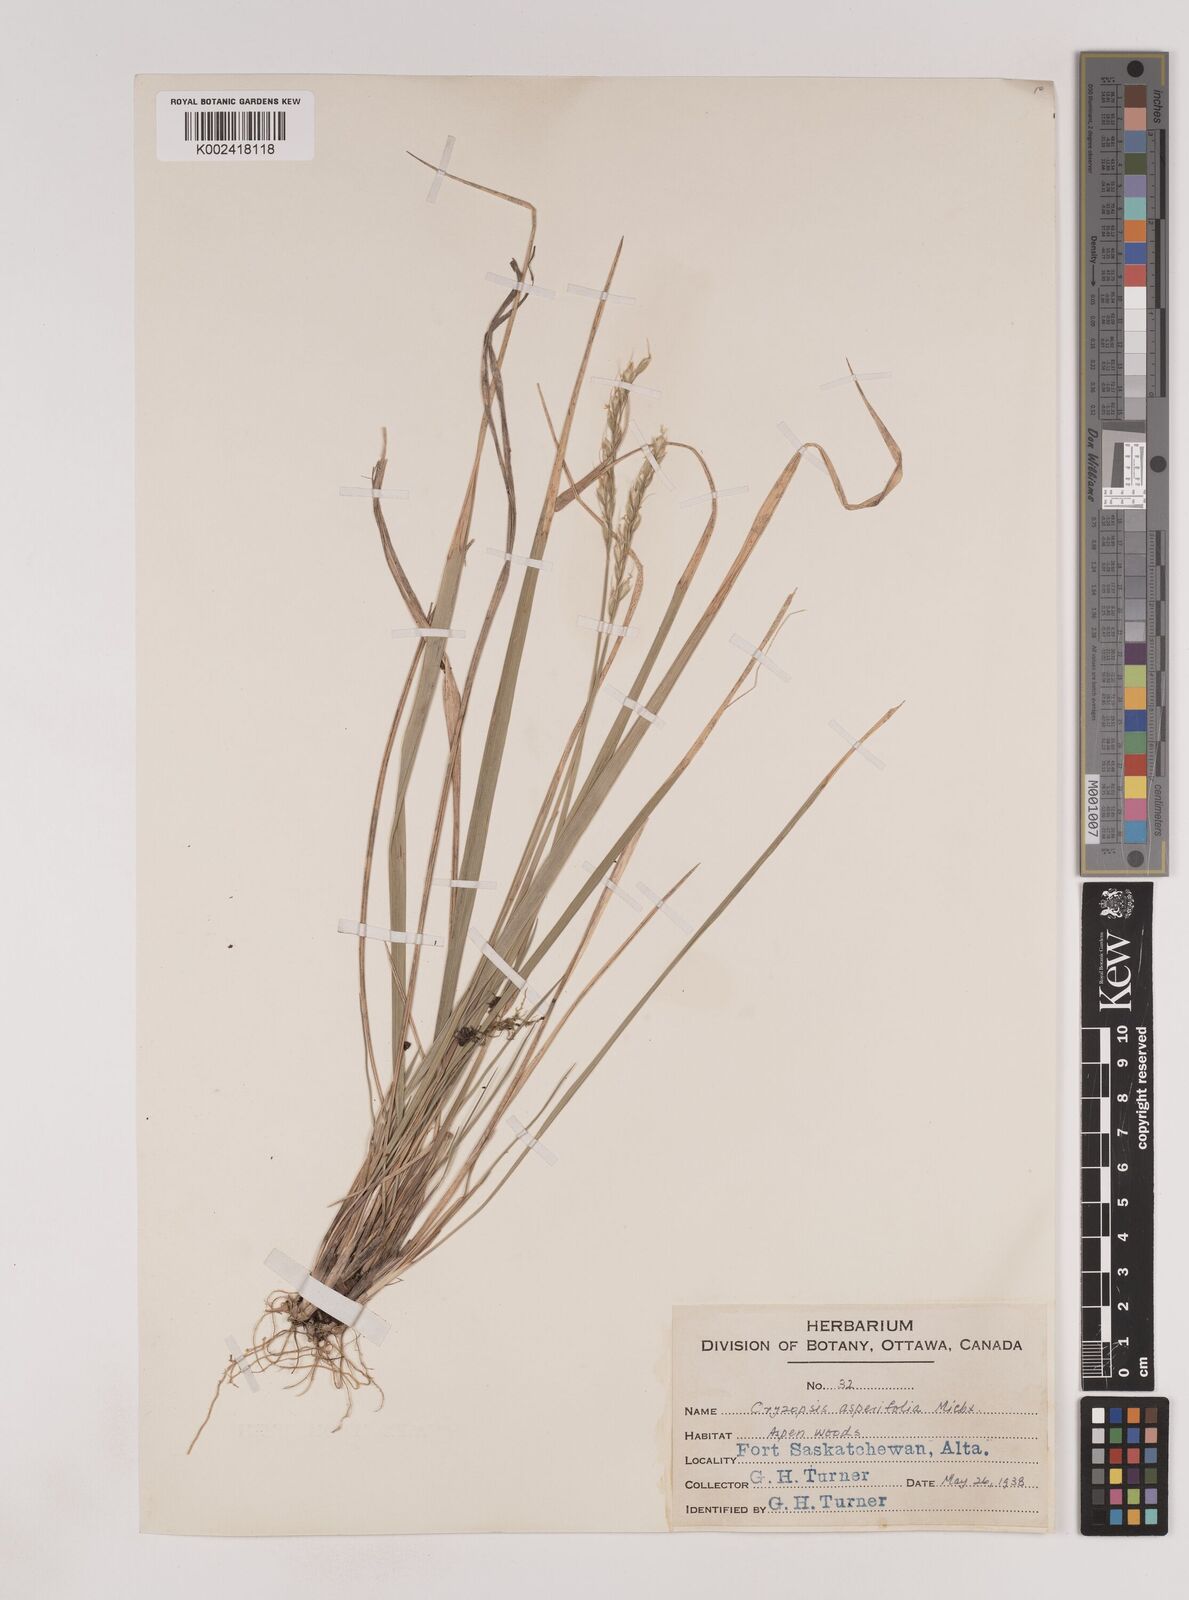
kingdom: Plantae
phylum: Tracheophyta
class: Liliopsida
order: Poales
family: Poaceae
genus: Oryzopsis
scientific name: Oryzopsis asperifolia
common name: Rough-leaved mountain rice
